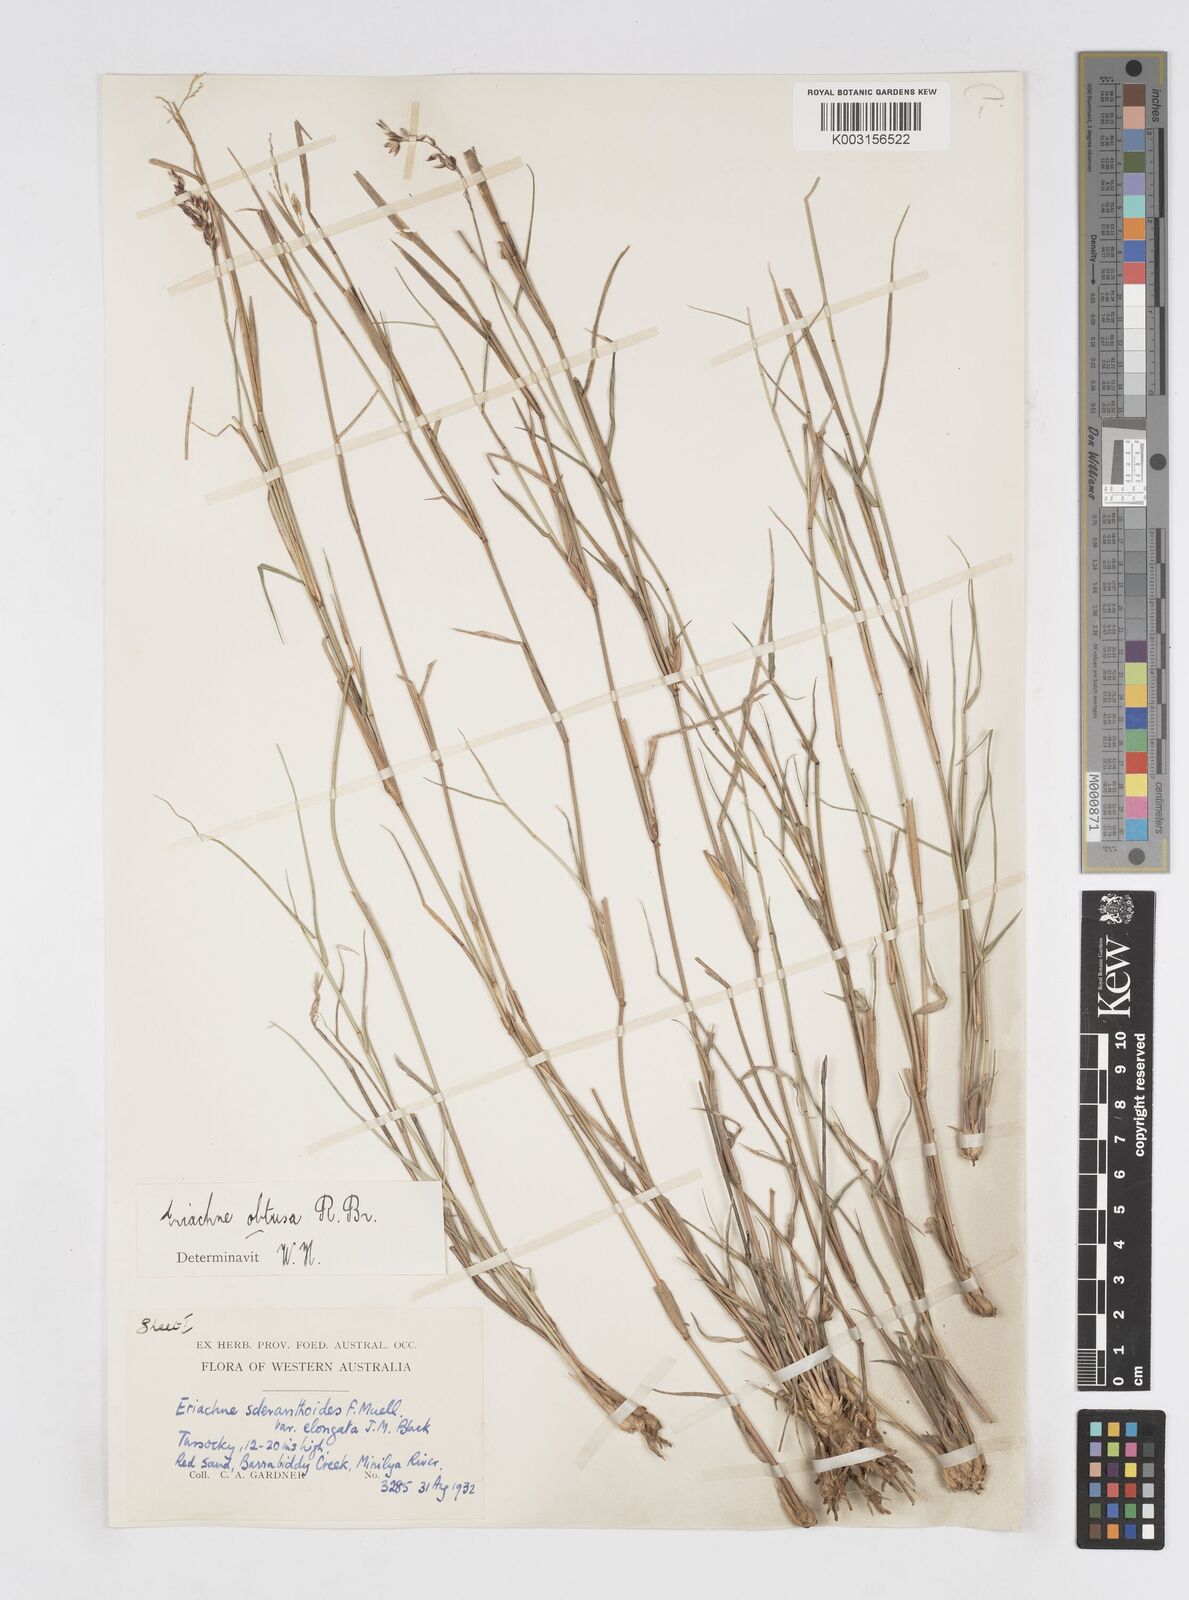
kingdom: Plantae
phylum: Tracheophyta
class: Liliopsida
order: Poales
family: Poaceae
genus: Eriachne
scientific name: Eriachne obtusa
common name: Northern wanderrie grass
